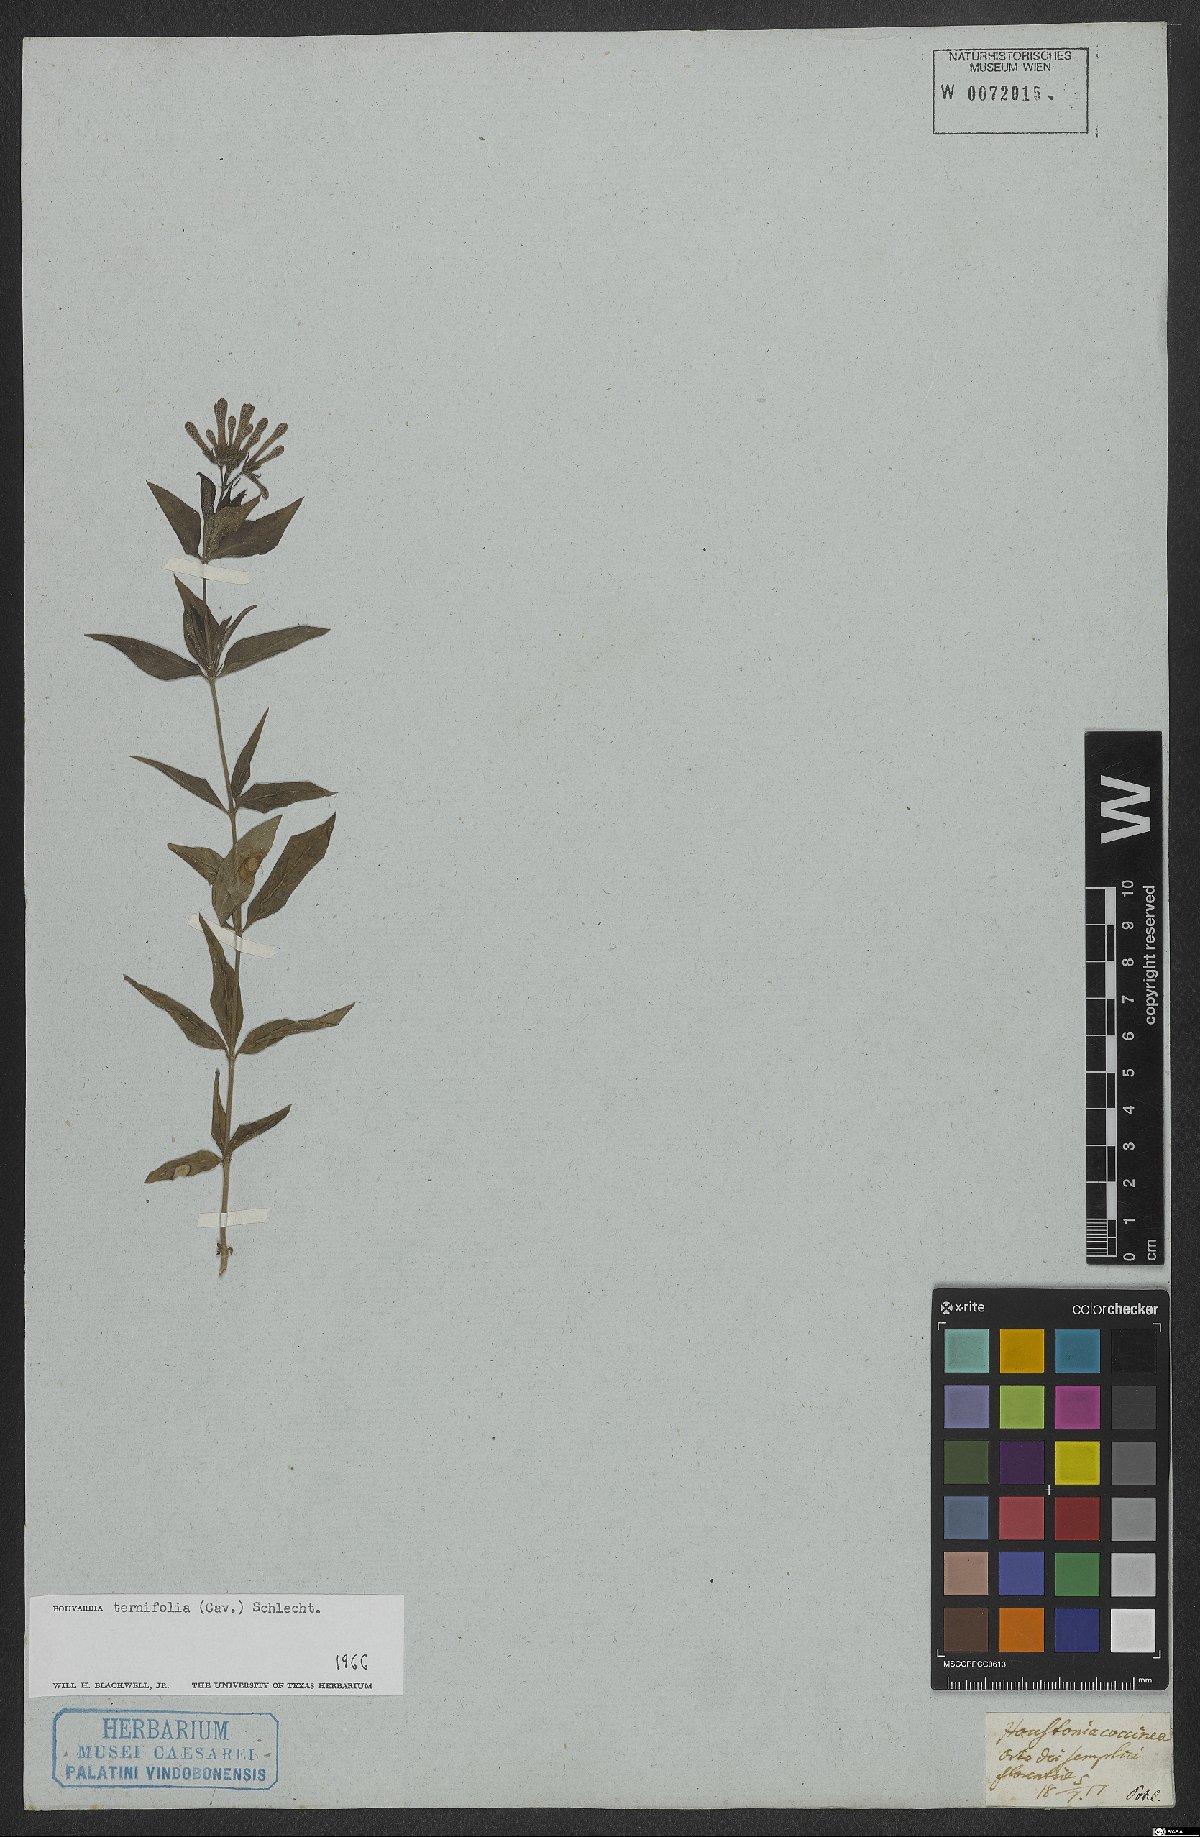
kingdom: Plantae
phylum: Tracheophyta
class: Magnoliopsida
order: Gentianales
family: Rubiaceae
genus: Bouvardia
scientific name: Bouvardia ternifolia
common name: Scarlet bouvardia
